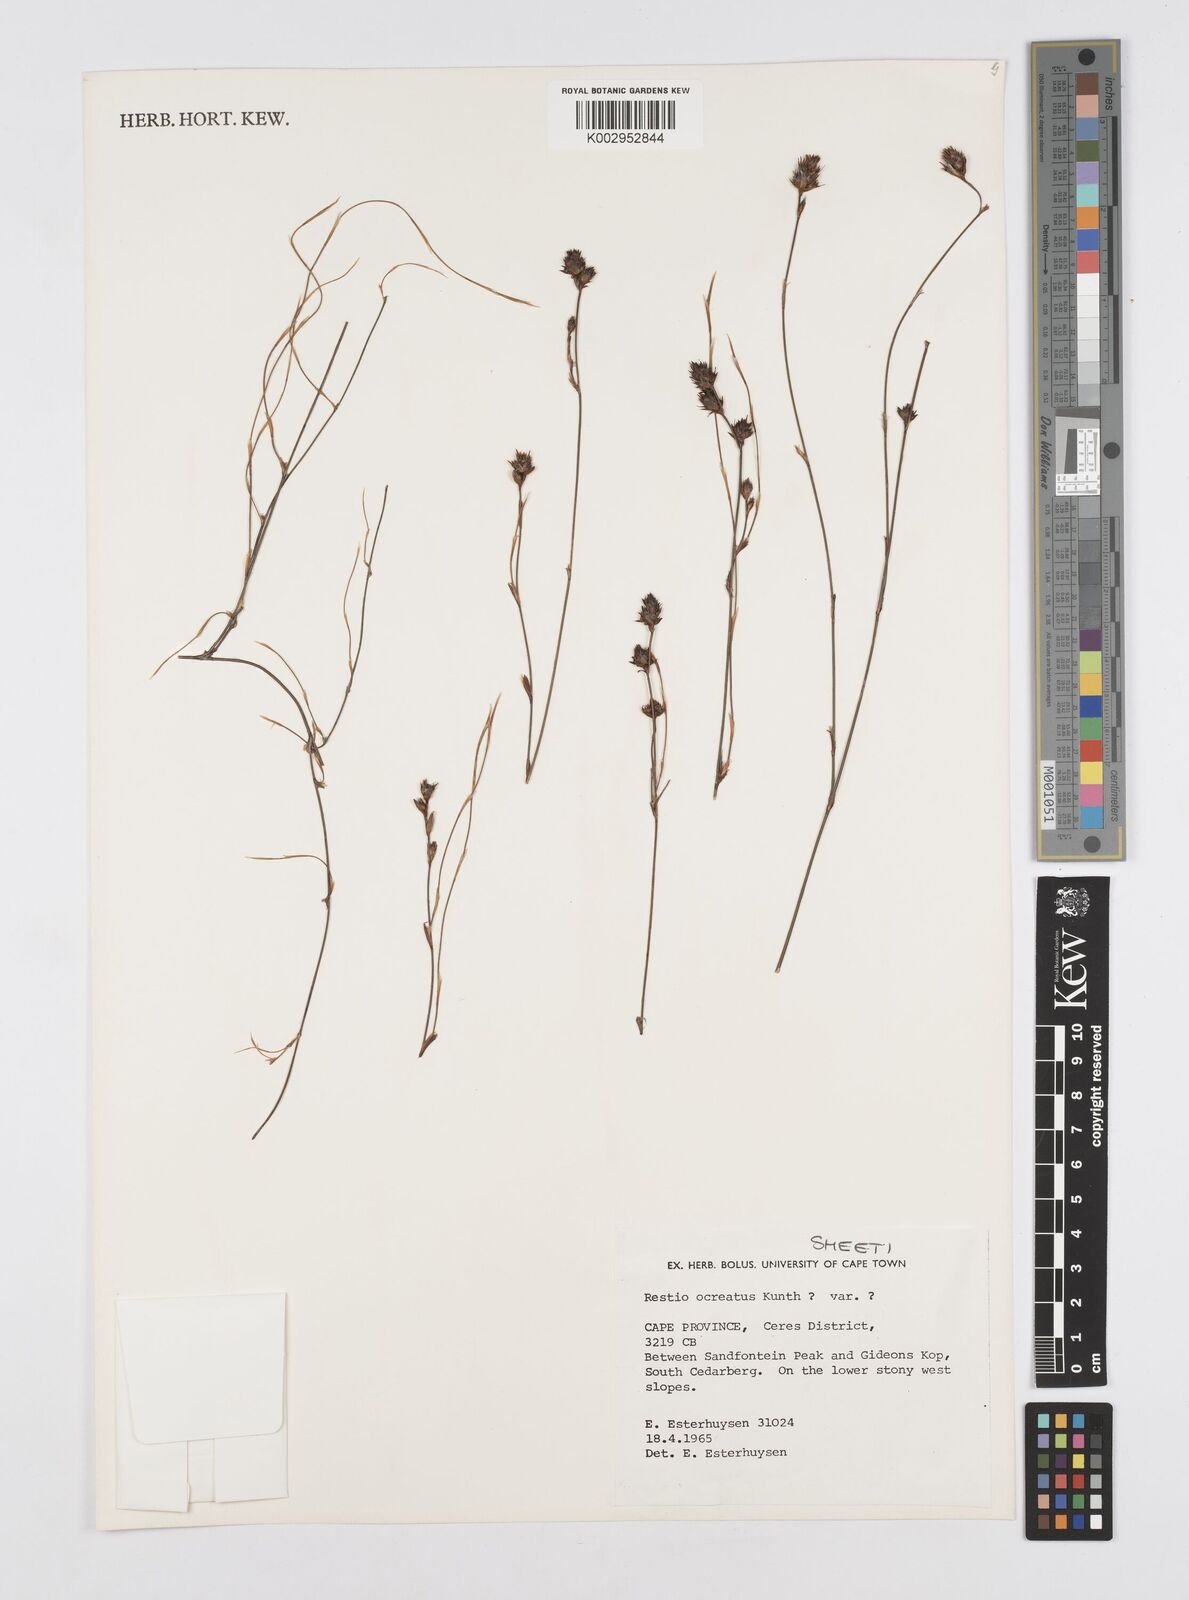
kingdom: Plantae
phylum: Tracheophyta
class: Liliopsida
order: Poales
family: Restionaceae
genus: Restio
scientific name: Restio ocreatus
